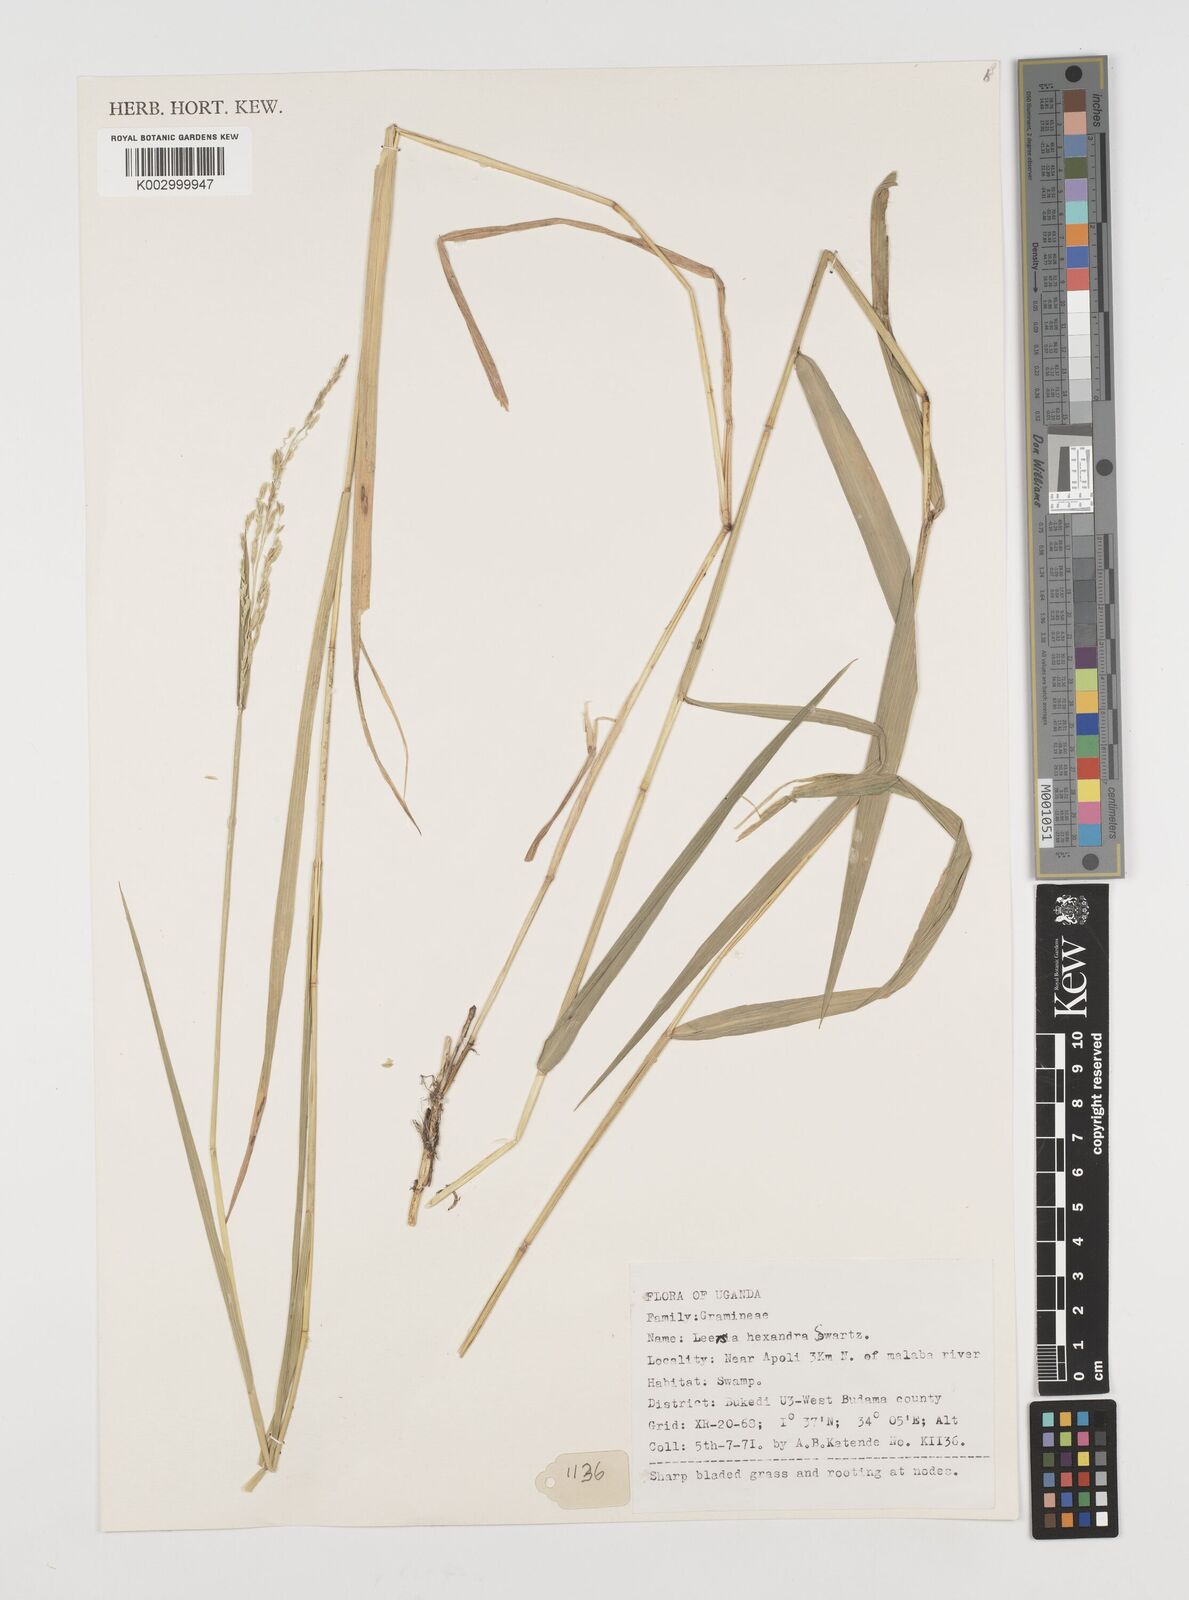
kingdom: Plantae
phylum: Tracheophyta
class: Liliopsida
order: Poales
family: Poaceae
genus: Leersia
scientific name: Leersia hexandra
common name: Southern cut grass
